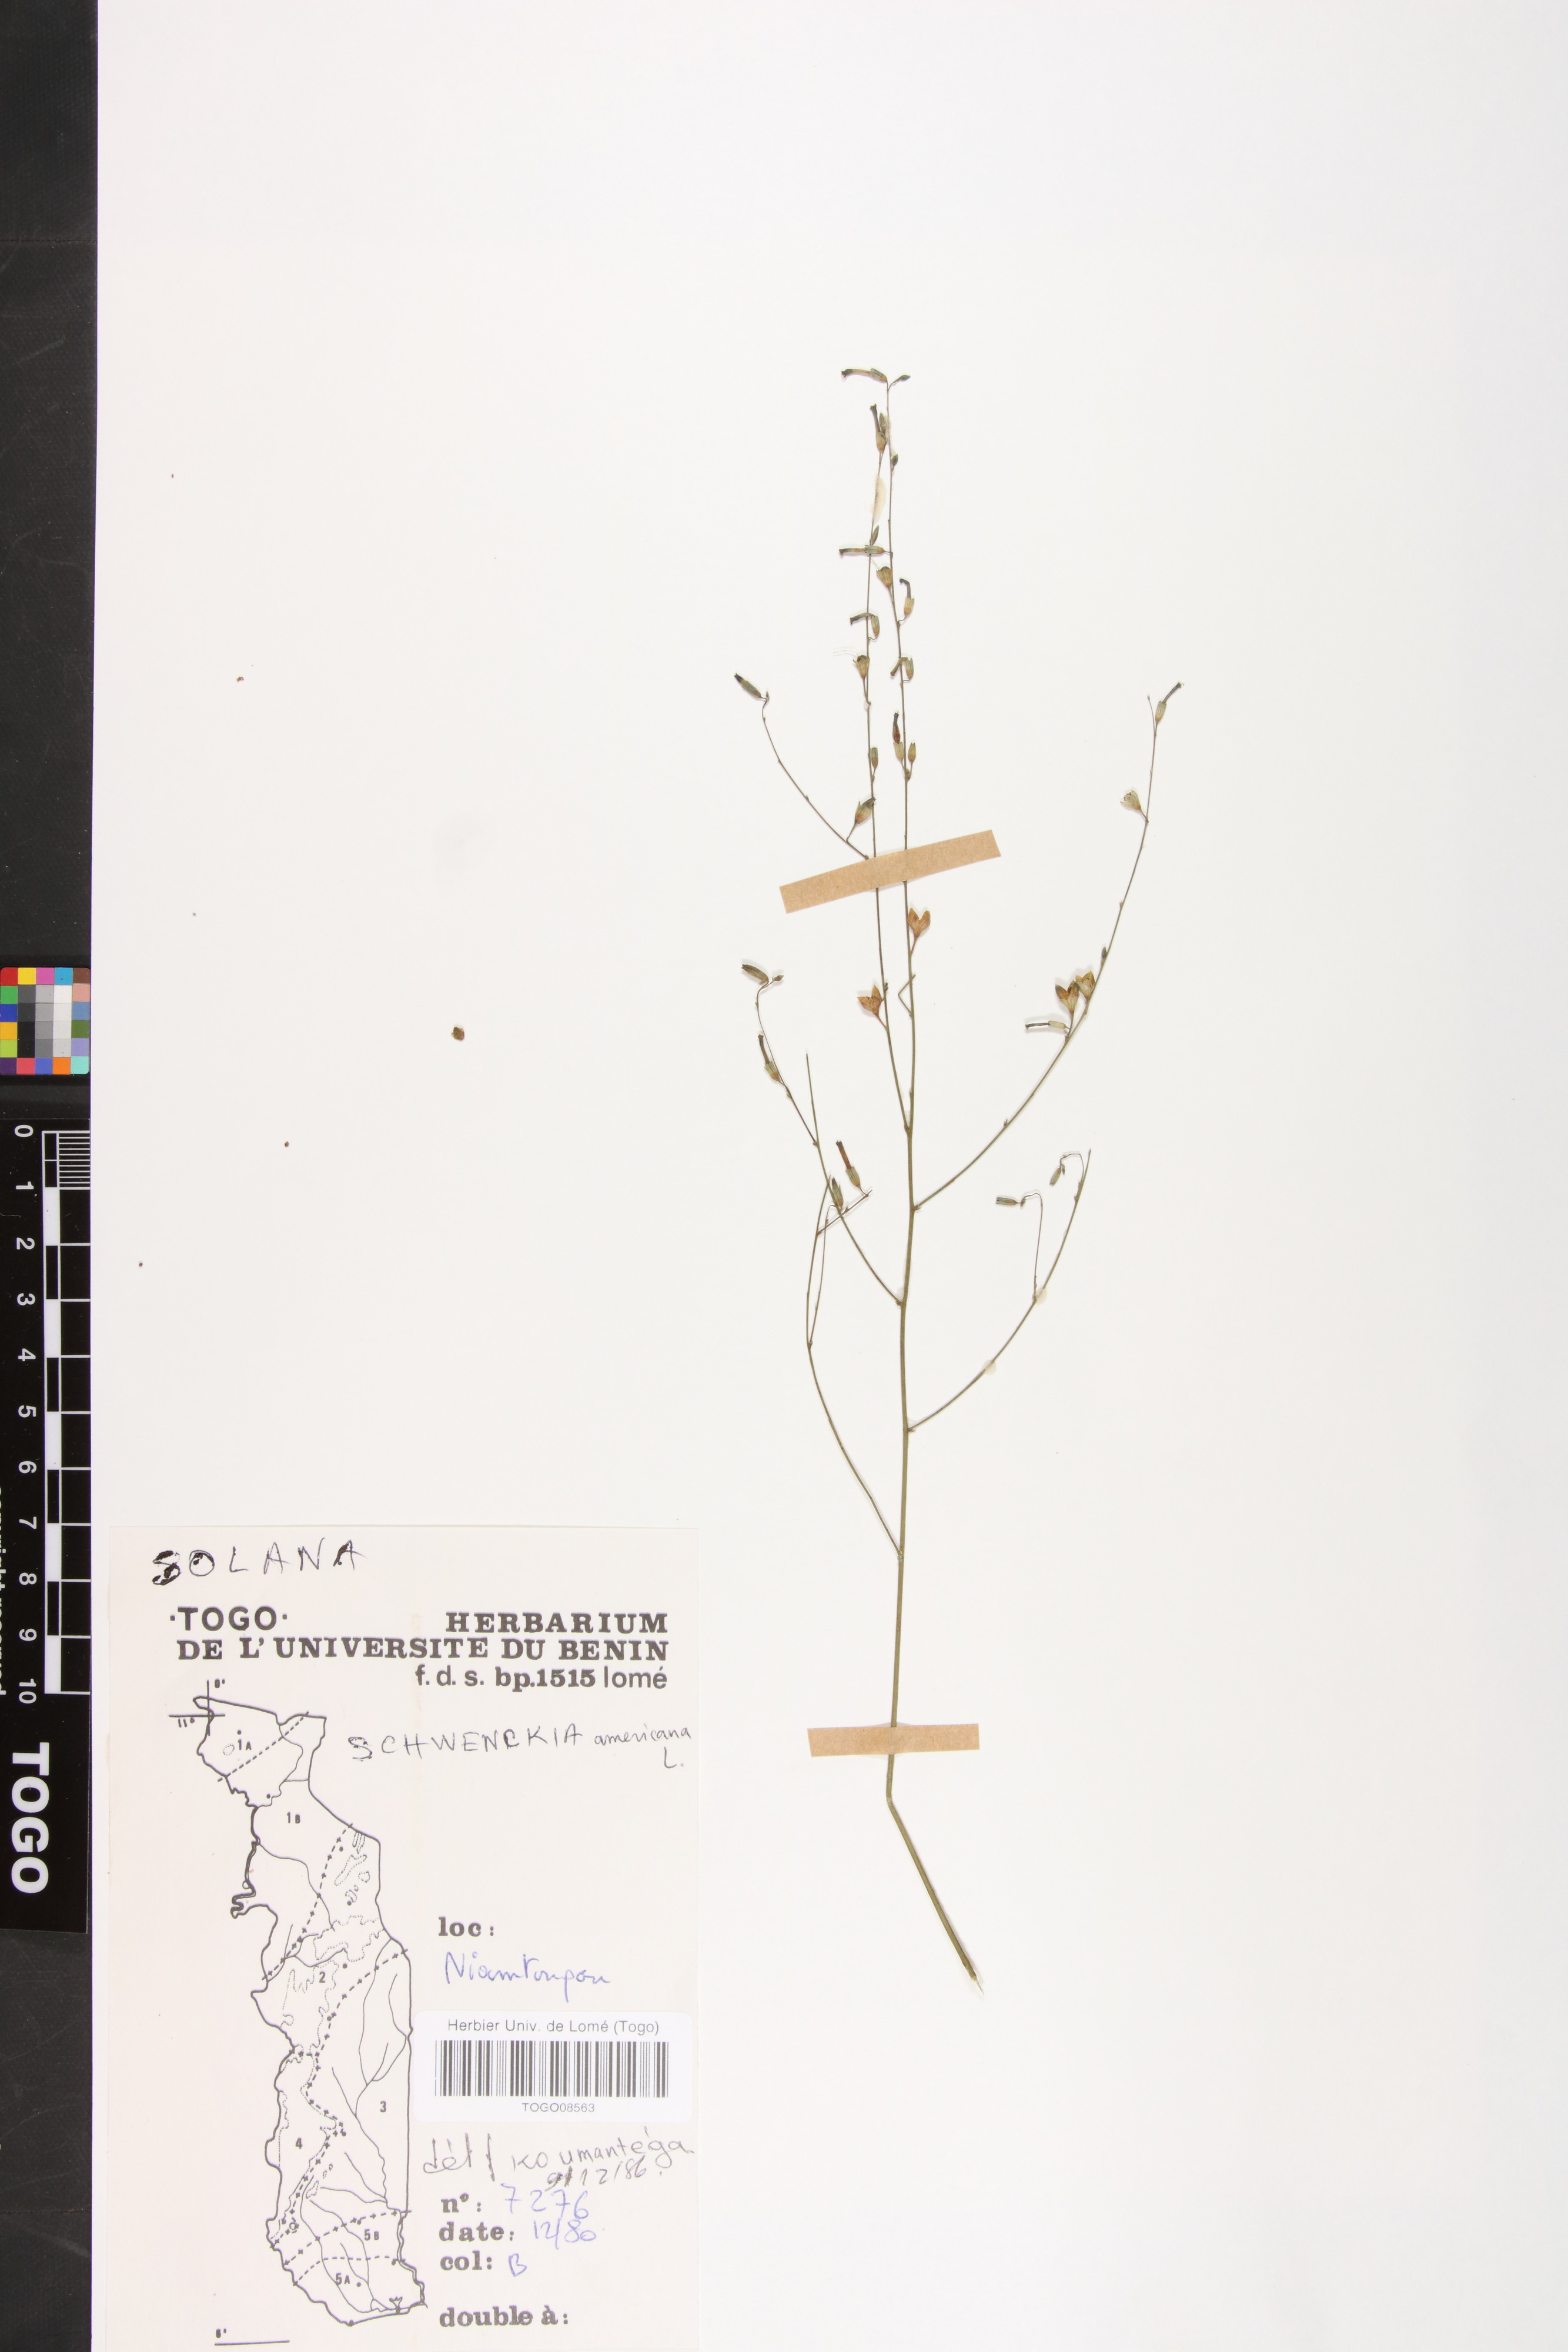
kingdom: Plantae
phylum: Tracheophyta
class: Magnoliopsida
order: Solanales
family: Solanaceae
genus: Schwenckia
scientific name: Schwenckia americana
